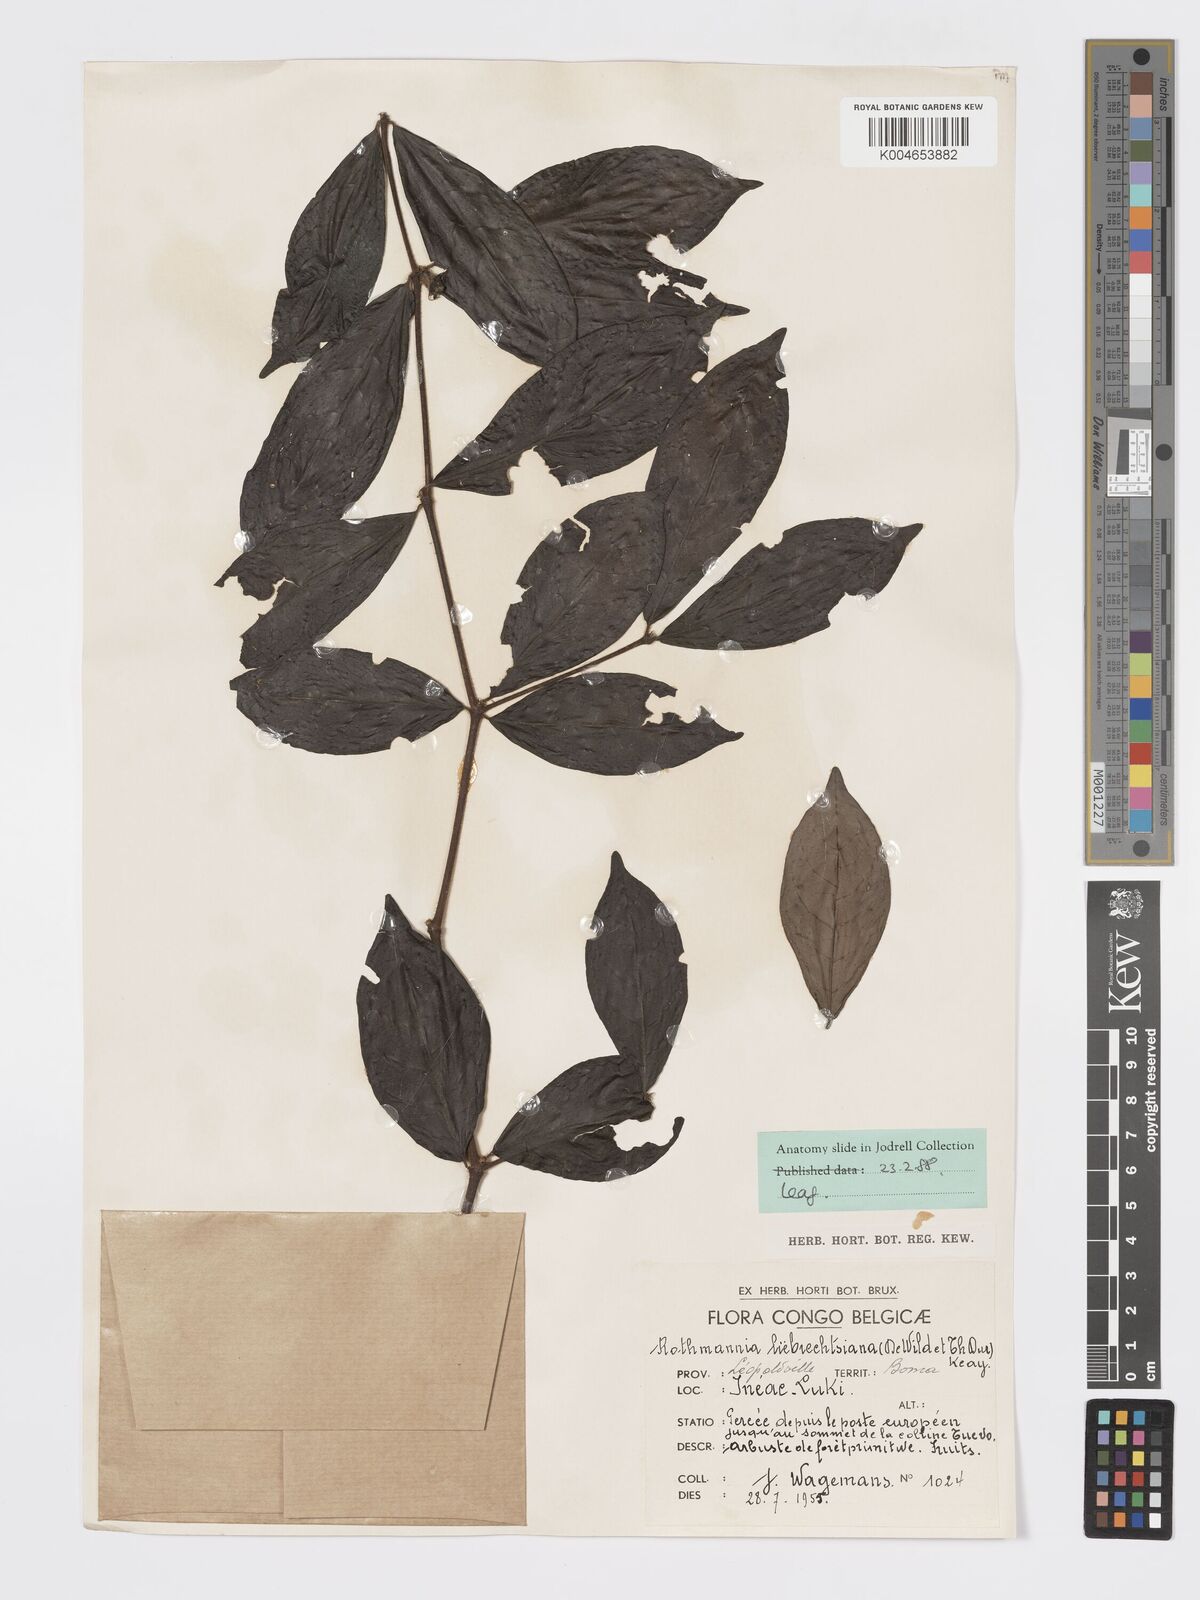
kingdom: Plantae
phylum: Tracheophyta
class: Magnoliopsida
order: Gentianales
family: Rubiaceae
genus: Rothmannia
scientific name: Rothmannia liebrechtsiana
